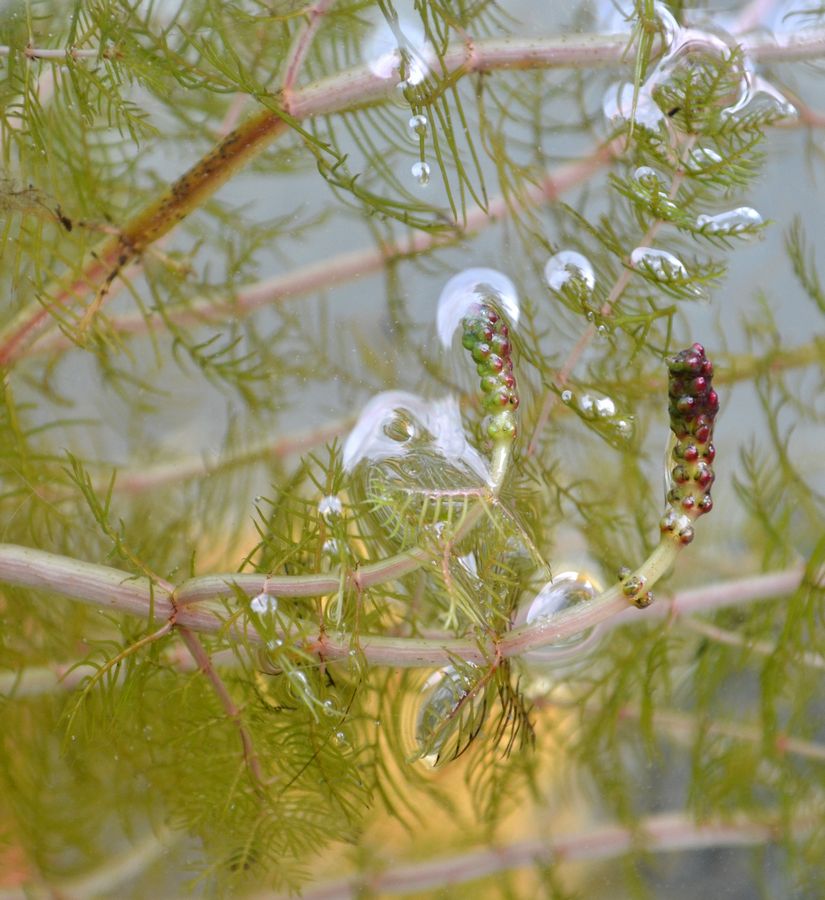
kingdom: Plantae
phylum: Tracheophyta
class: Magnoliopsida
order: Saxifragales
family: Haloragaceae
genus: Myriophyllum
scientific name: Myriophyllum sibiricum
